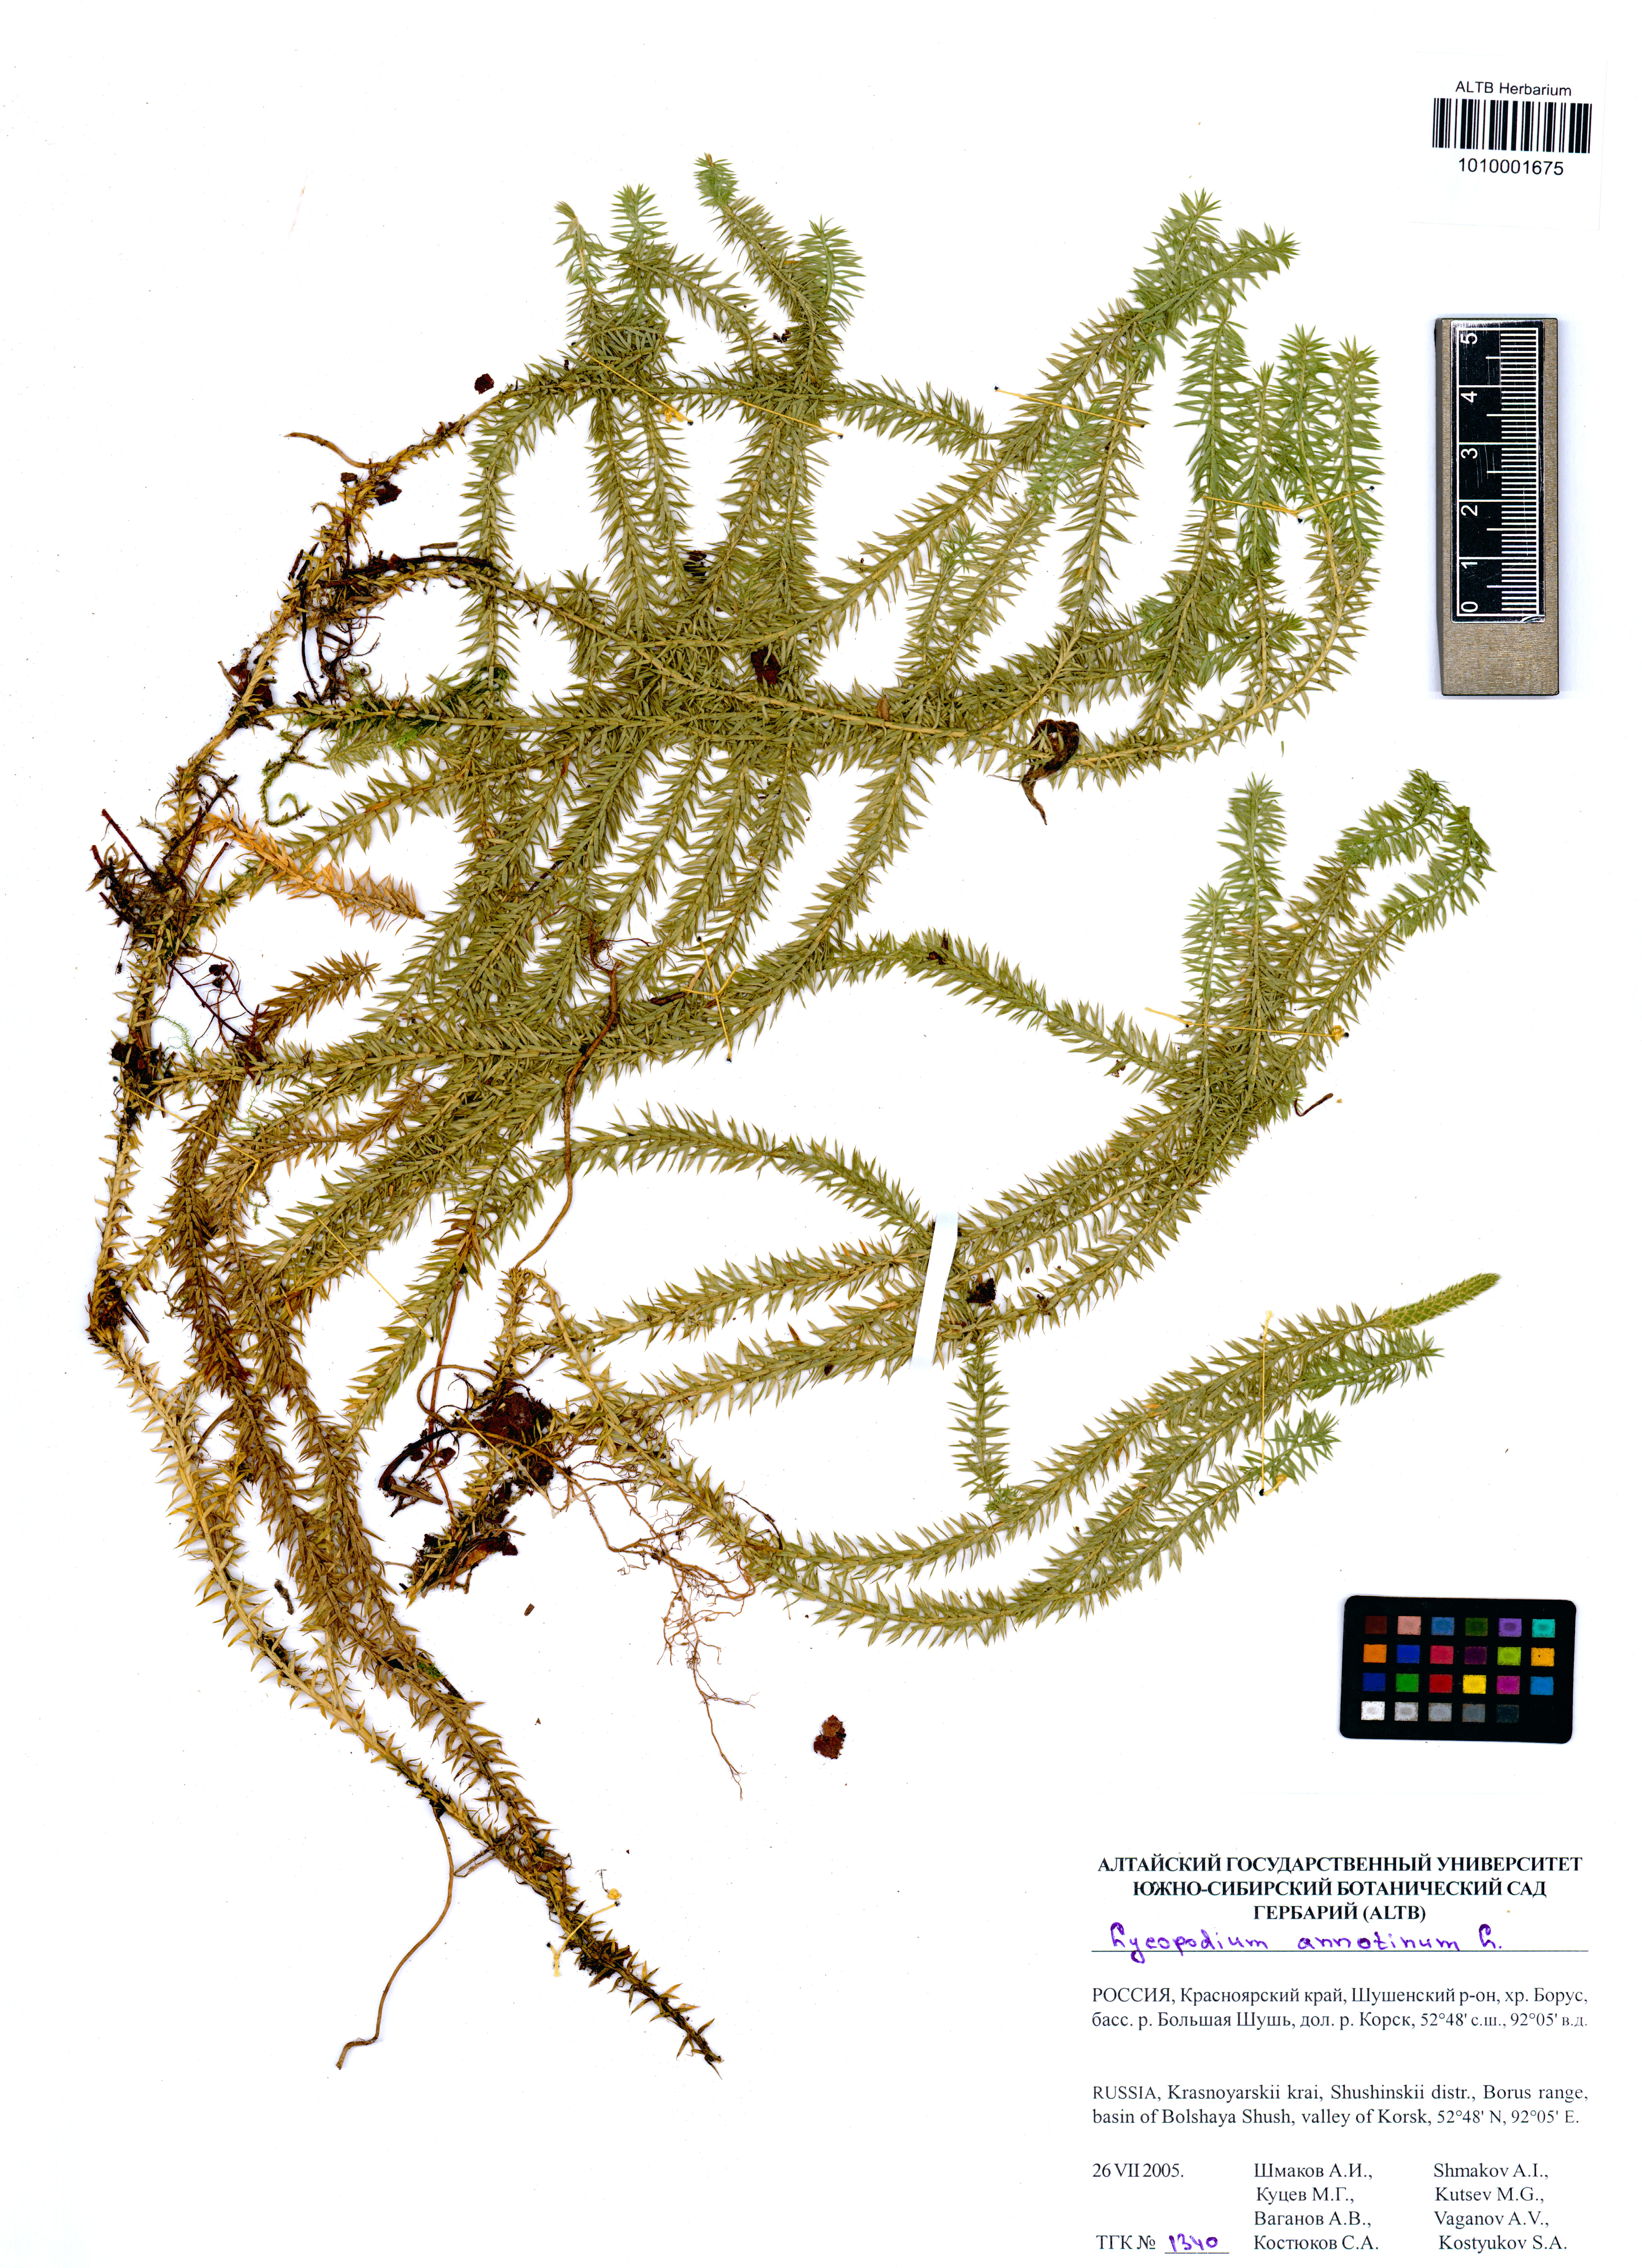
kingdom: Plantae
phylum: Tracheophyta
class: Lycopodiopsida
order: Lycopodiales
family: Lycopodiaceae
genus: Spinulum
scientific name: Spinulum annotinum
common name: Interrupted club-moss
